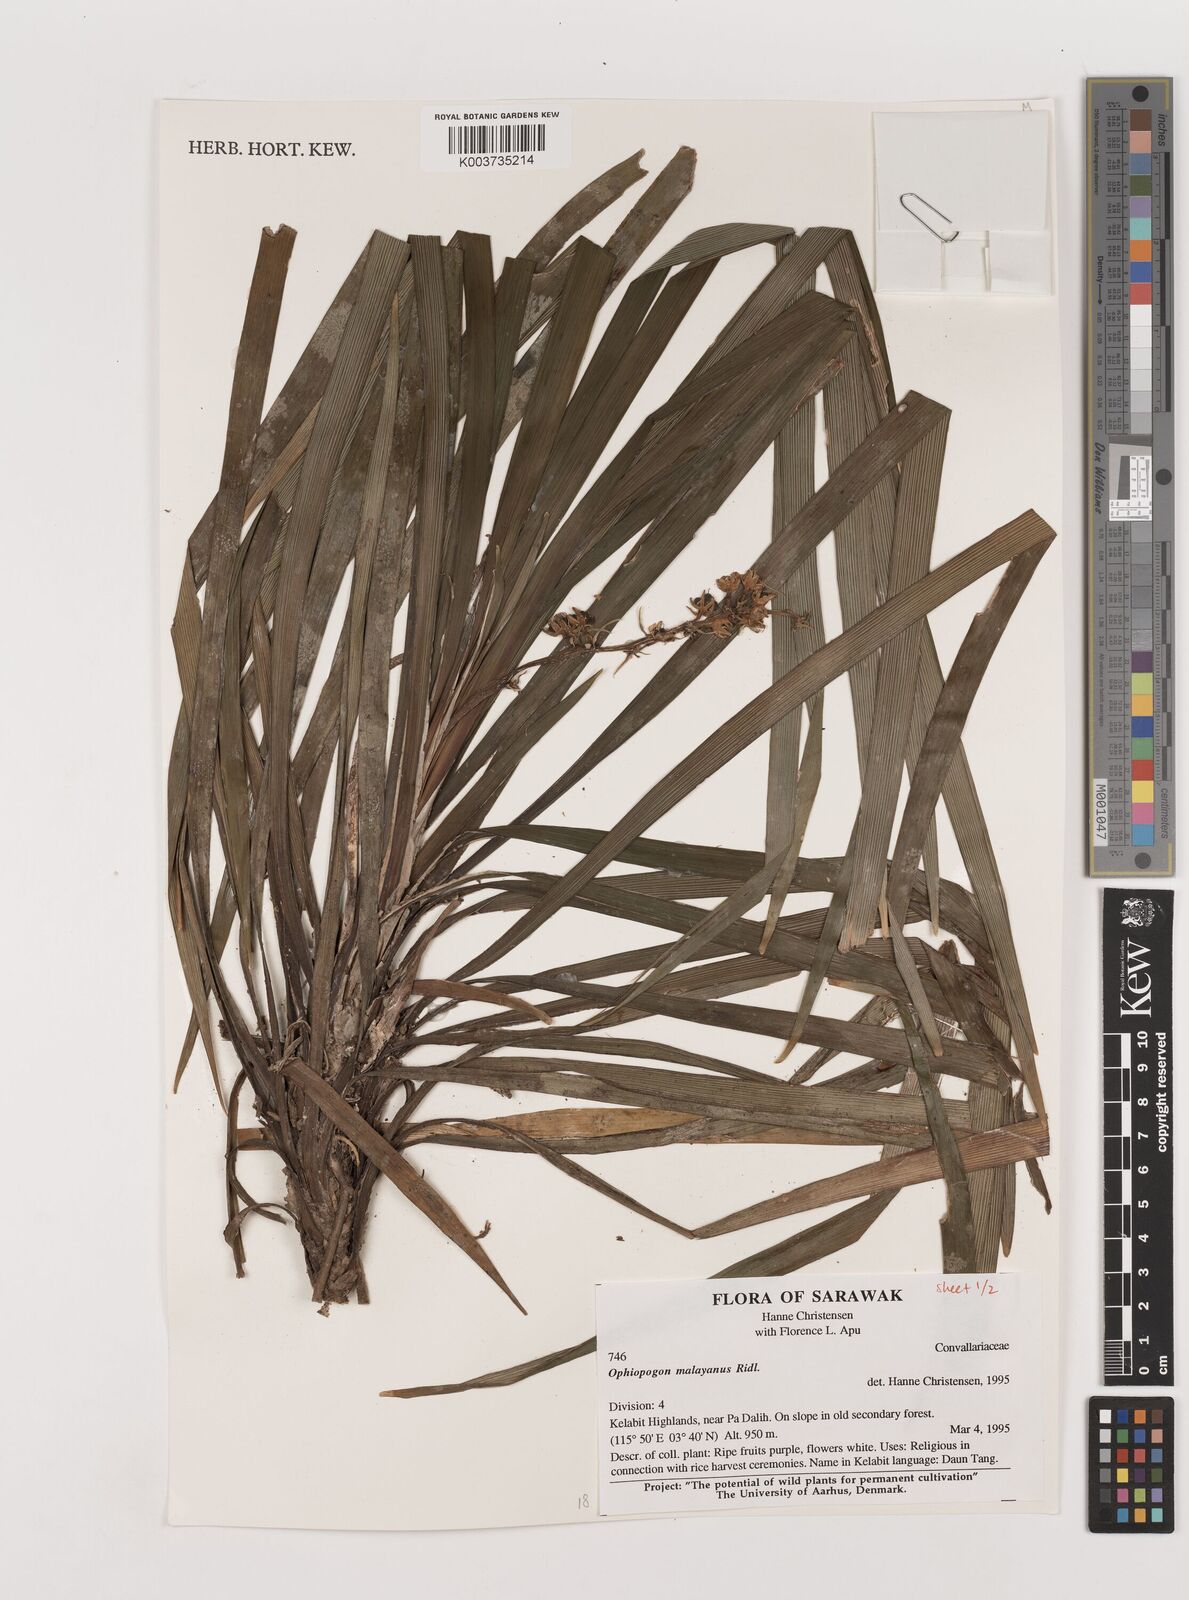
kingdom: Plantae
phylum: Tracheophyta
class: Liliopsida
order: Asparagales
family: Asparagaceae
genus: Ophiopogon
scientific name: Ophiopogon caulescens
